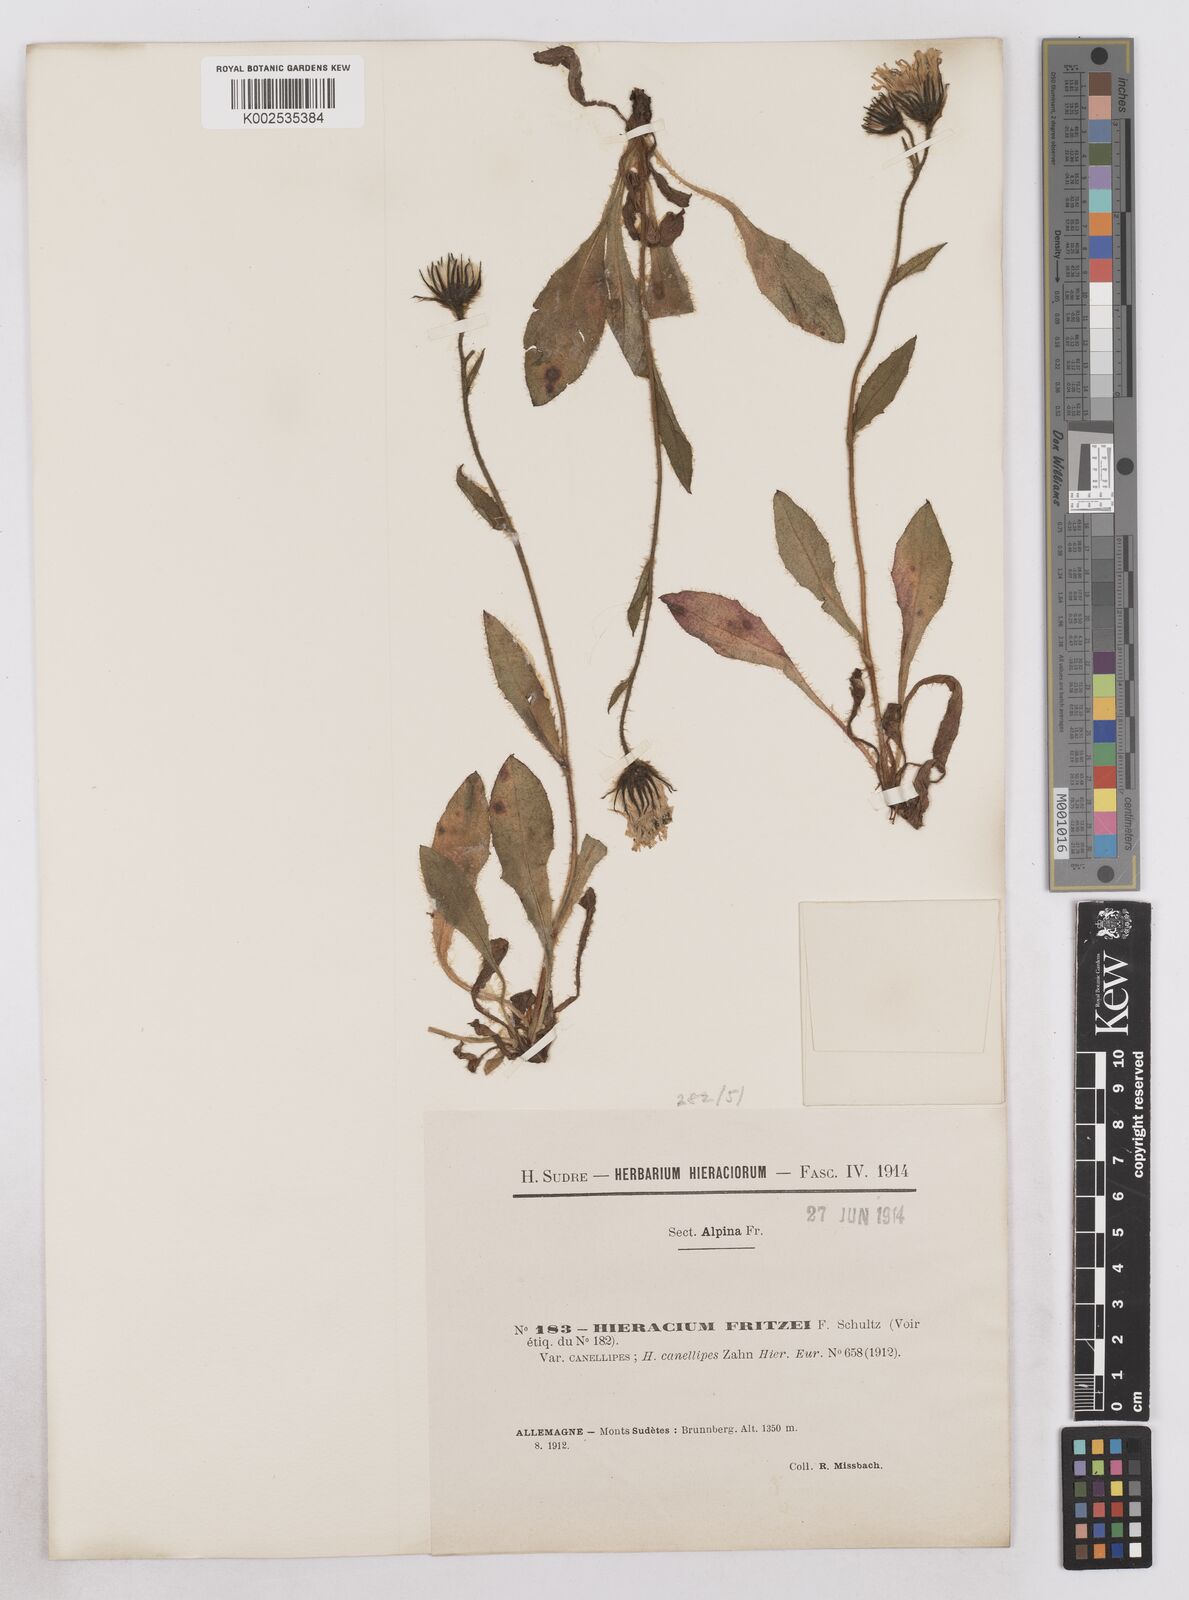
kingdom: Plantae
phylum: Tracheophyta
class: Magnoliopsida
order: Asterales
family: Asteraceae
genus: Hieracium
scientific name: Hieracium alpinum
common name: Alpine hawkweed
